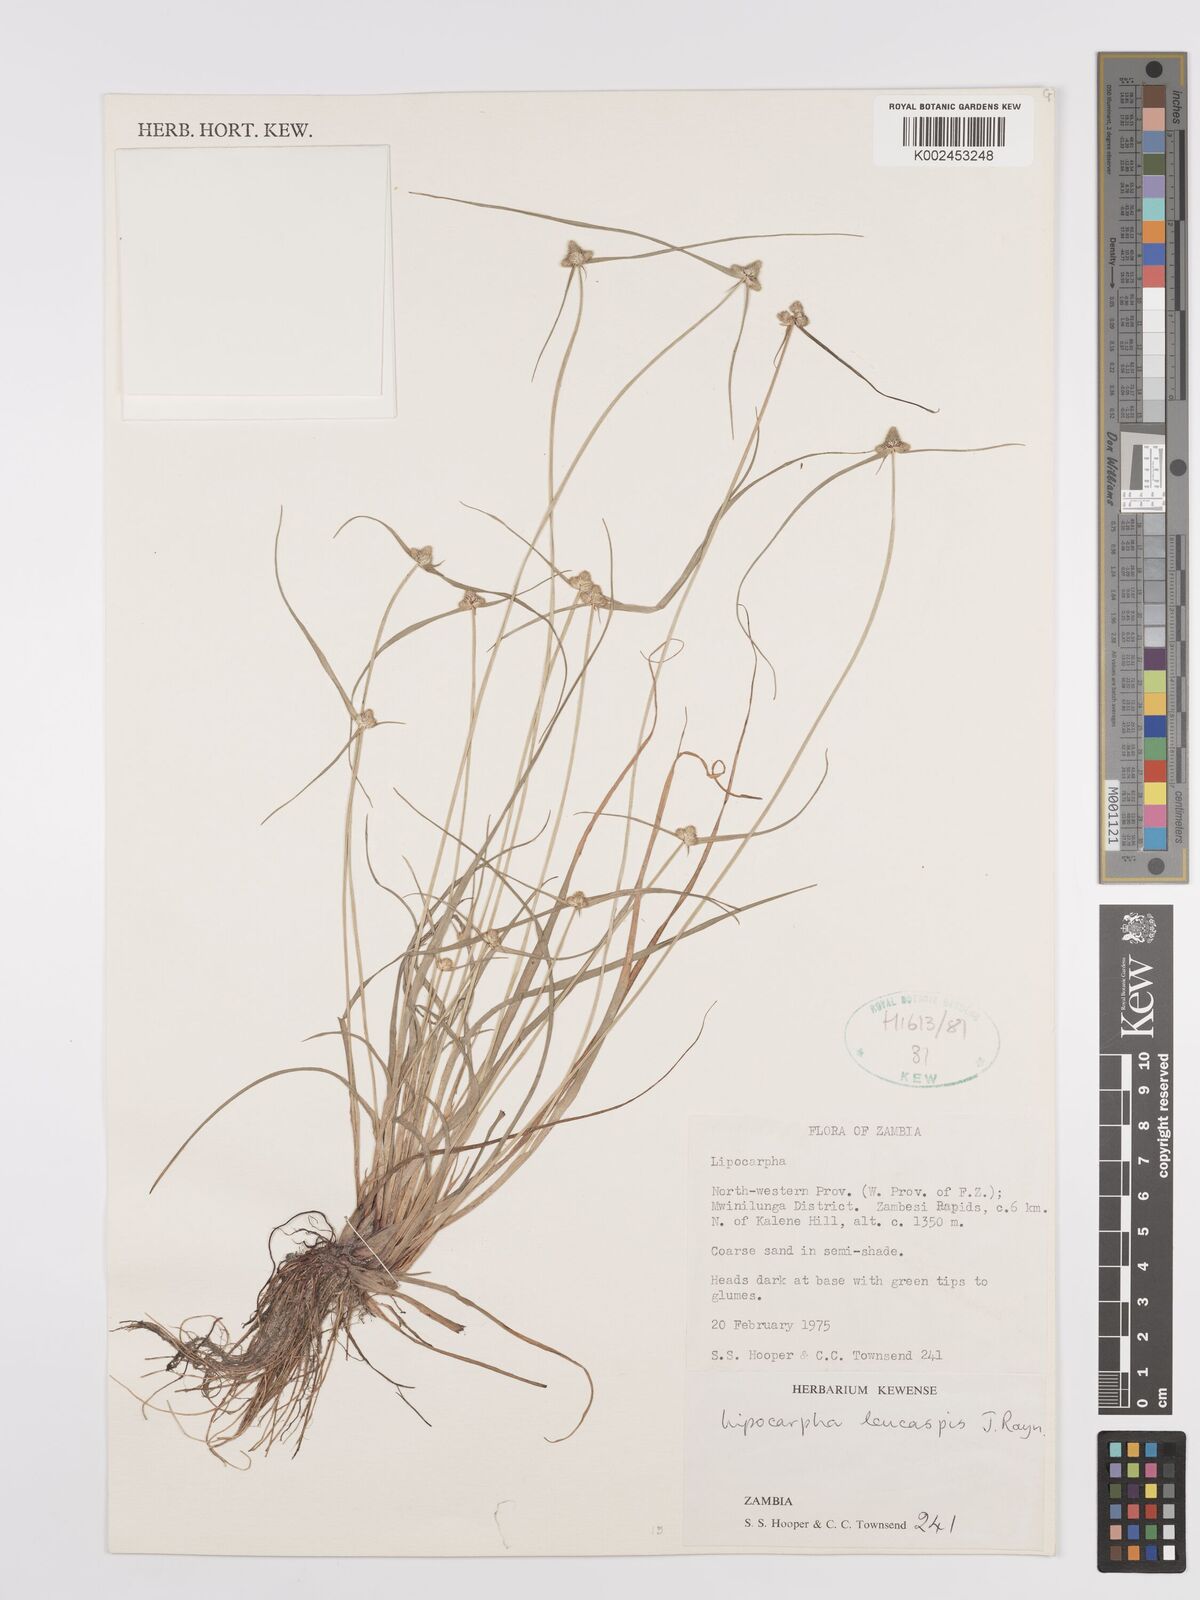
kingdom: Plantae
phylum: Tracheophyta
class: Liliopsida
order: Poales
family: Cyperaceae
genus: Cyperus
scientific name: Cyperus leucaspis
